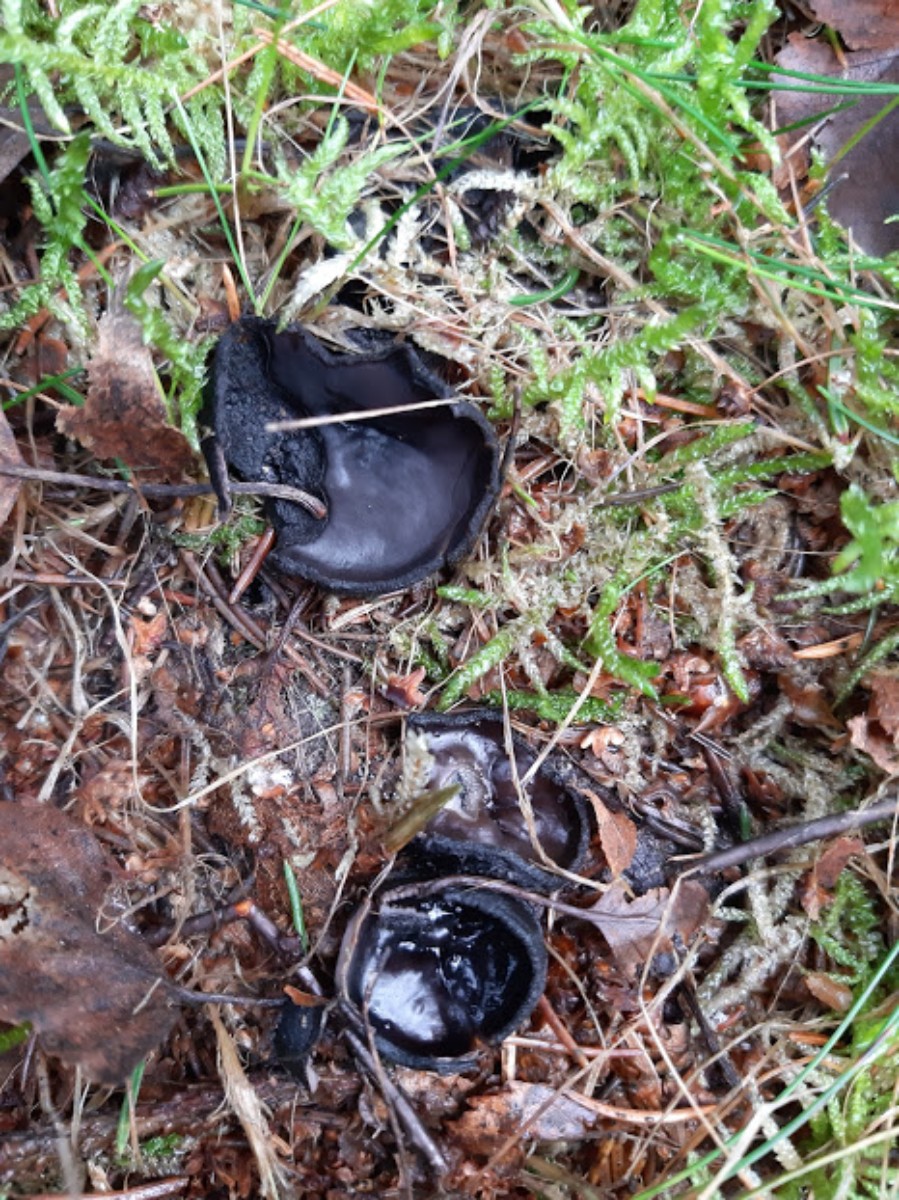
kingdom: Fungi
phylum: Ascomycota
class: Pezizomycetes
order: Pezizales
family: Sarcosomataceae
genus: Pseudoplectania
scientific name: Pseudoplectania nigrella
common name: almindelig sortbæger
